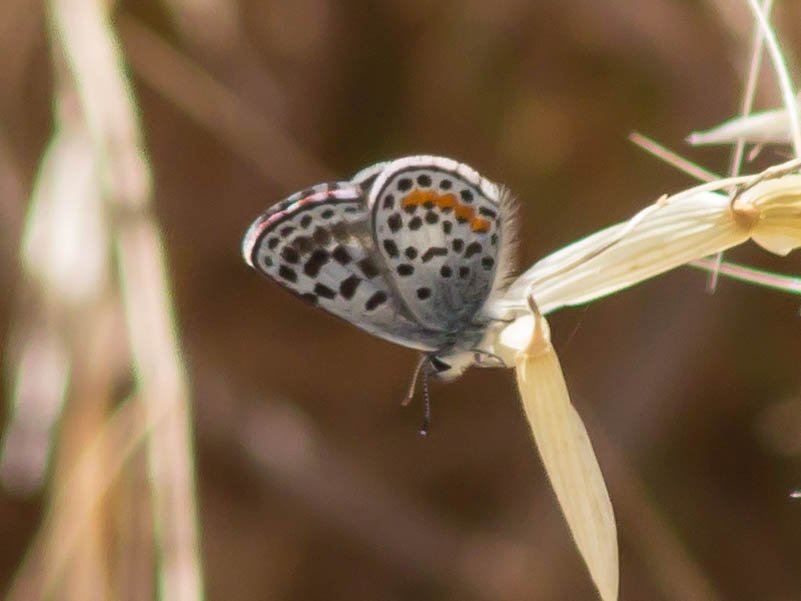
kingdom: Animalia
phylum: Arthropoda
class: Insecta
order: Lepidoptera
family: Lycaenidae
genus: Philotes
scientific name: Philotes bernardino
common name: Bernardino Blue
